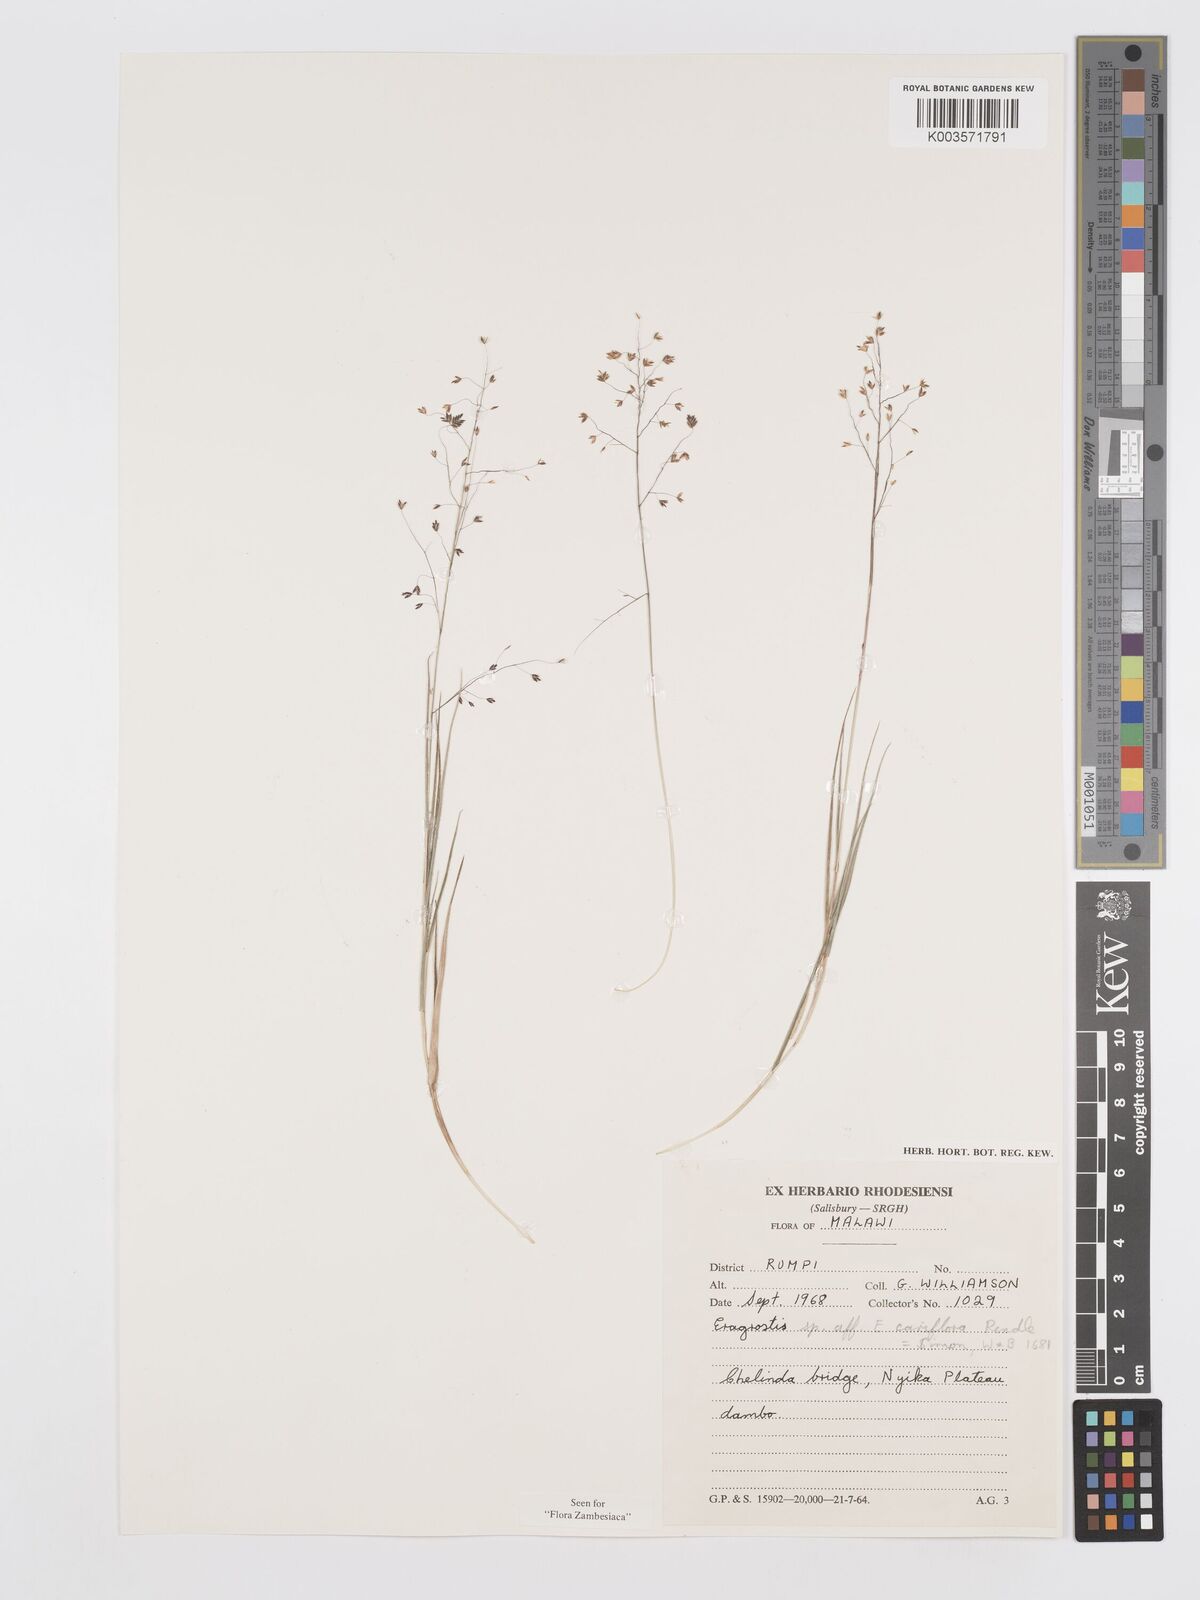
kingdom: Plantae
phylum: Tracheophyta
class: Liliopsida
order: Poales
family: Poaceae
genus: Eragrostis
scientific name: Eragrostis caniflora
